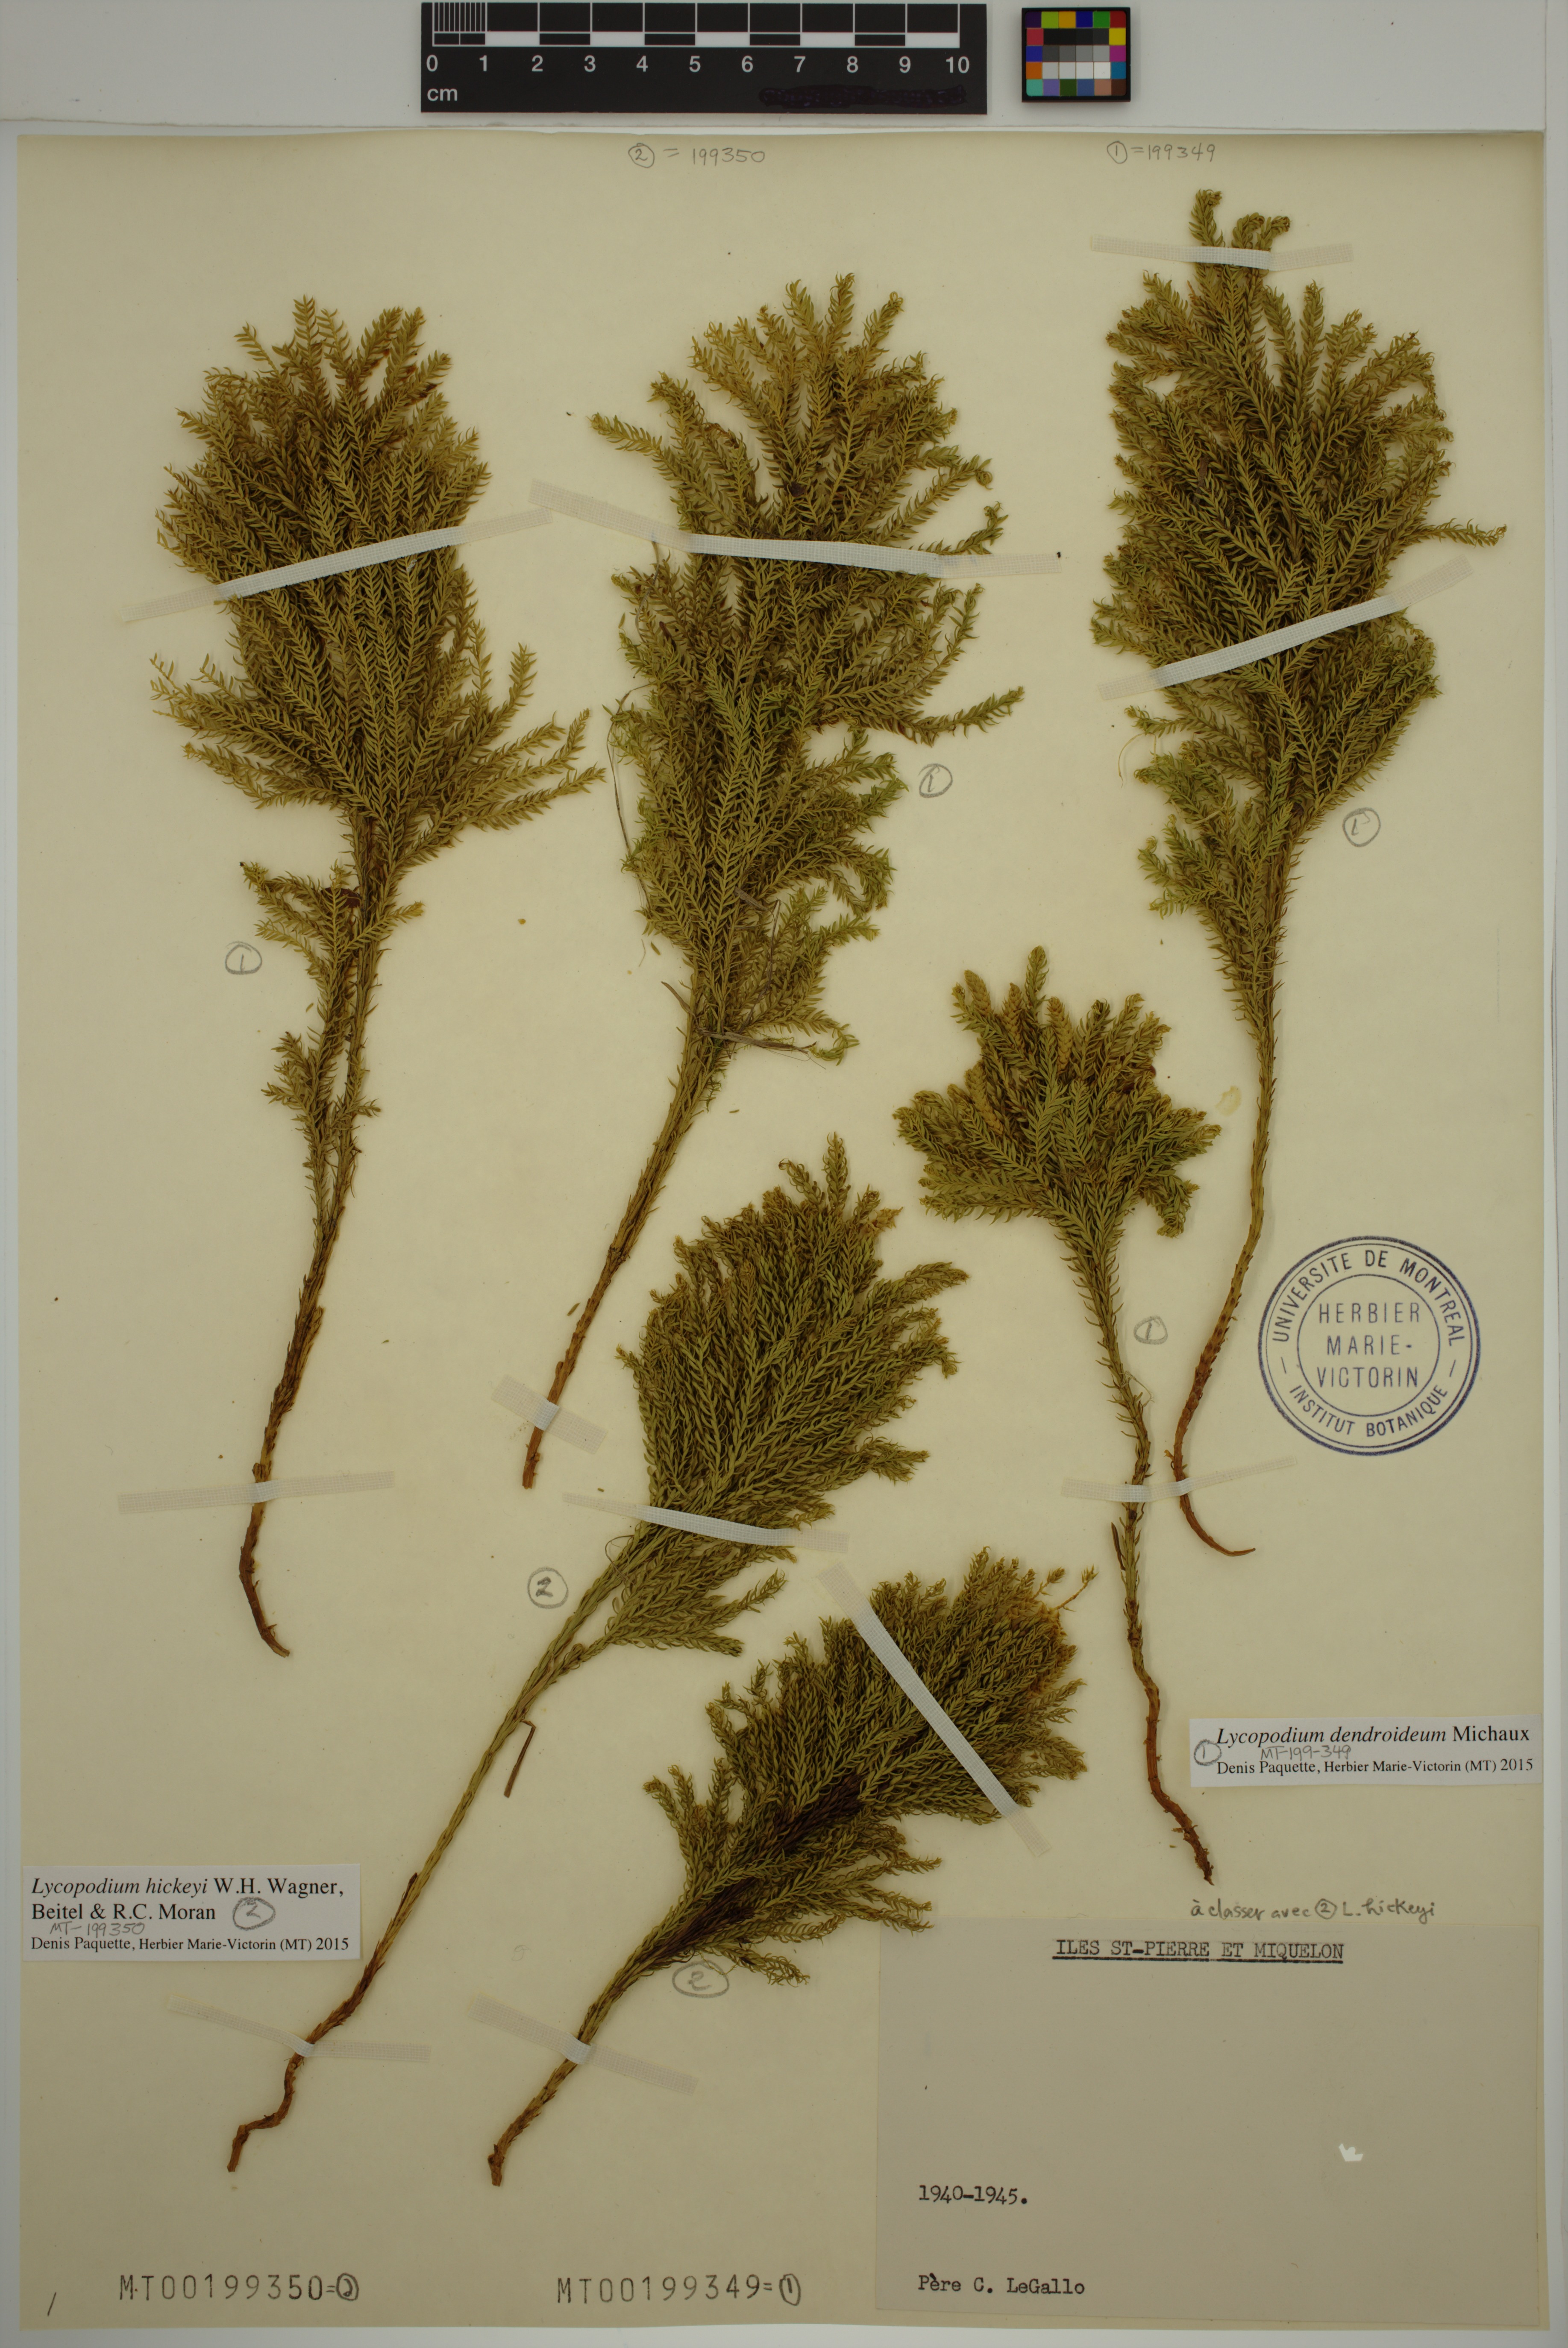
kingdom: Plantae
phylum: Tracheophyta
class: Lycopodiopsida
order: Lycopodiales
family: Lycopodiaceae
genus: Dendrolycopodium
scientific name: Dendrolycopodium hickeyi
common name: Hickey's clubmoss
